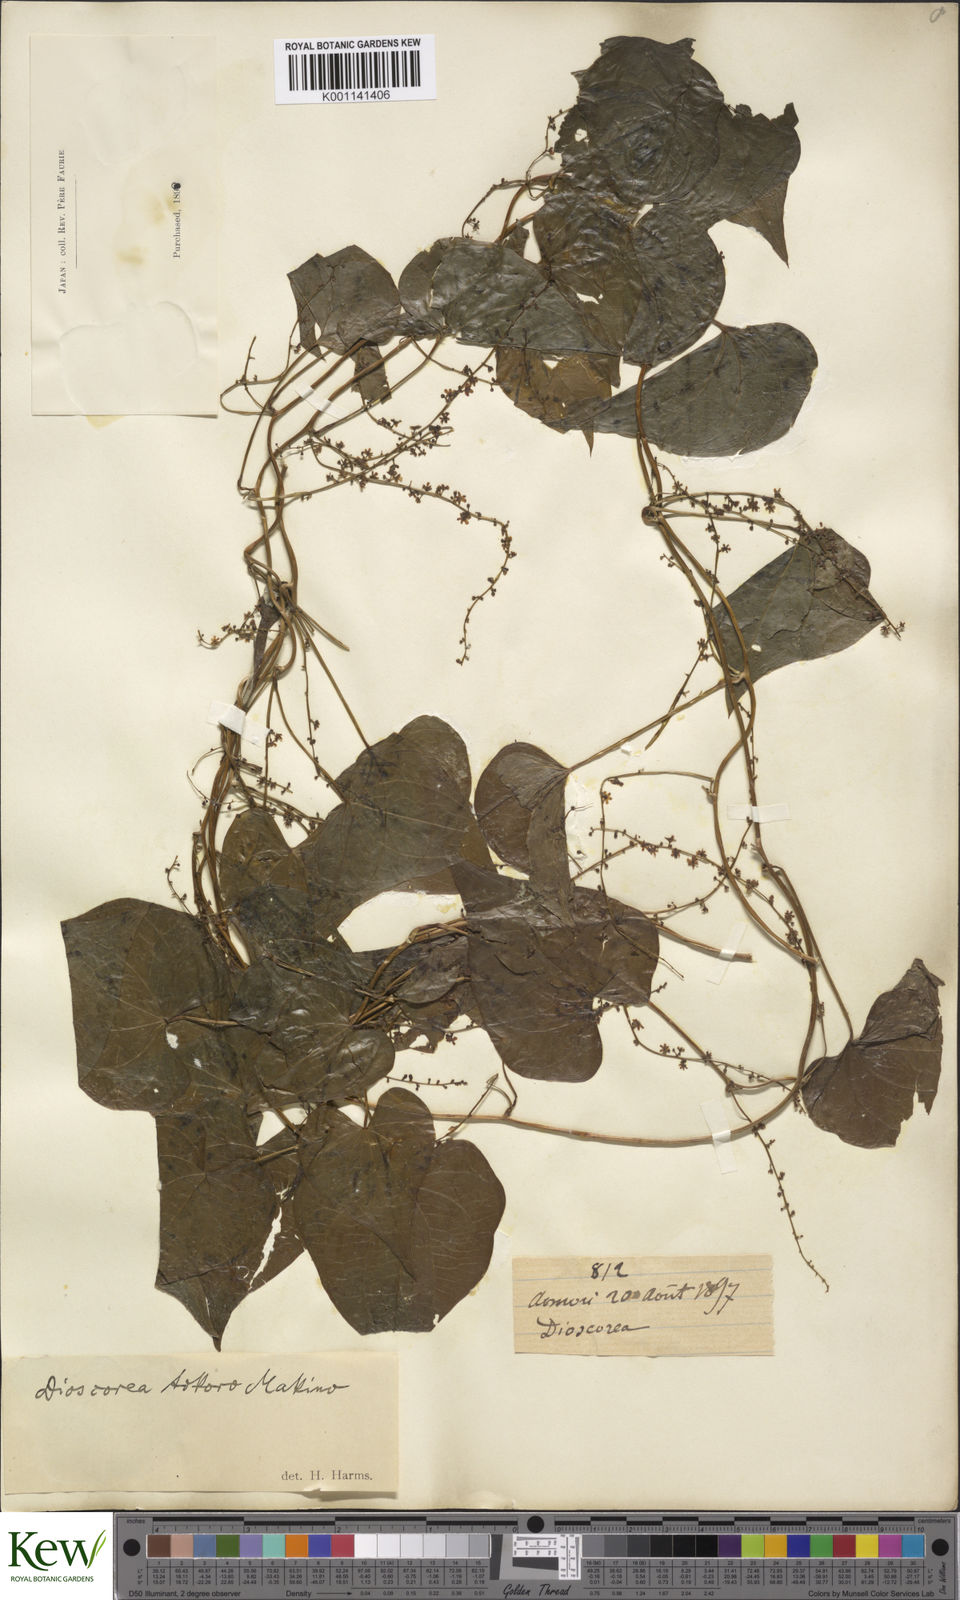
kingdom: Plantae
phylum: Tracheophyta
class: Liliopsida
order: Dioscoreales
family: Dioscoreaceae
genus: Dioscorea
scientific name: Dioscorea tokoro
